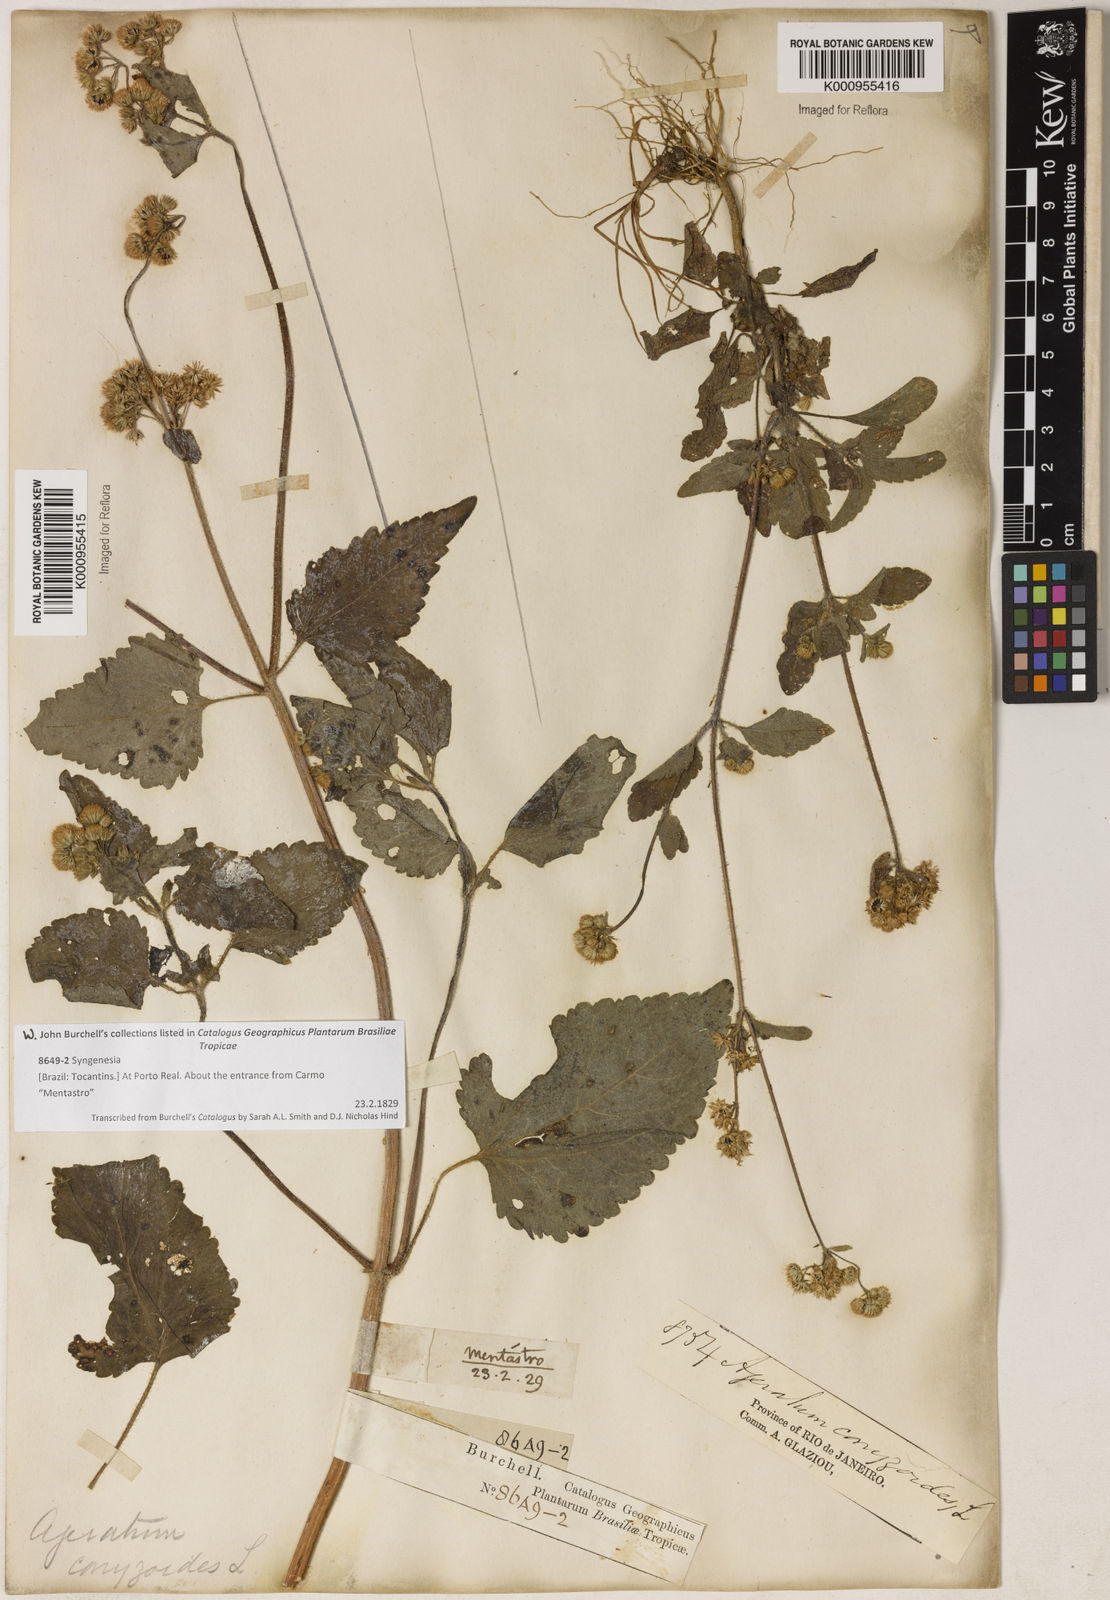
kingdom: Plantae
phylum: Tracheophyta
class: Magnoliopsida
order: Asterales
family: Asteraceae
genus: Ageratum
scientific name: Ageratum conyzoides
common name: Tropical whiteweed
